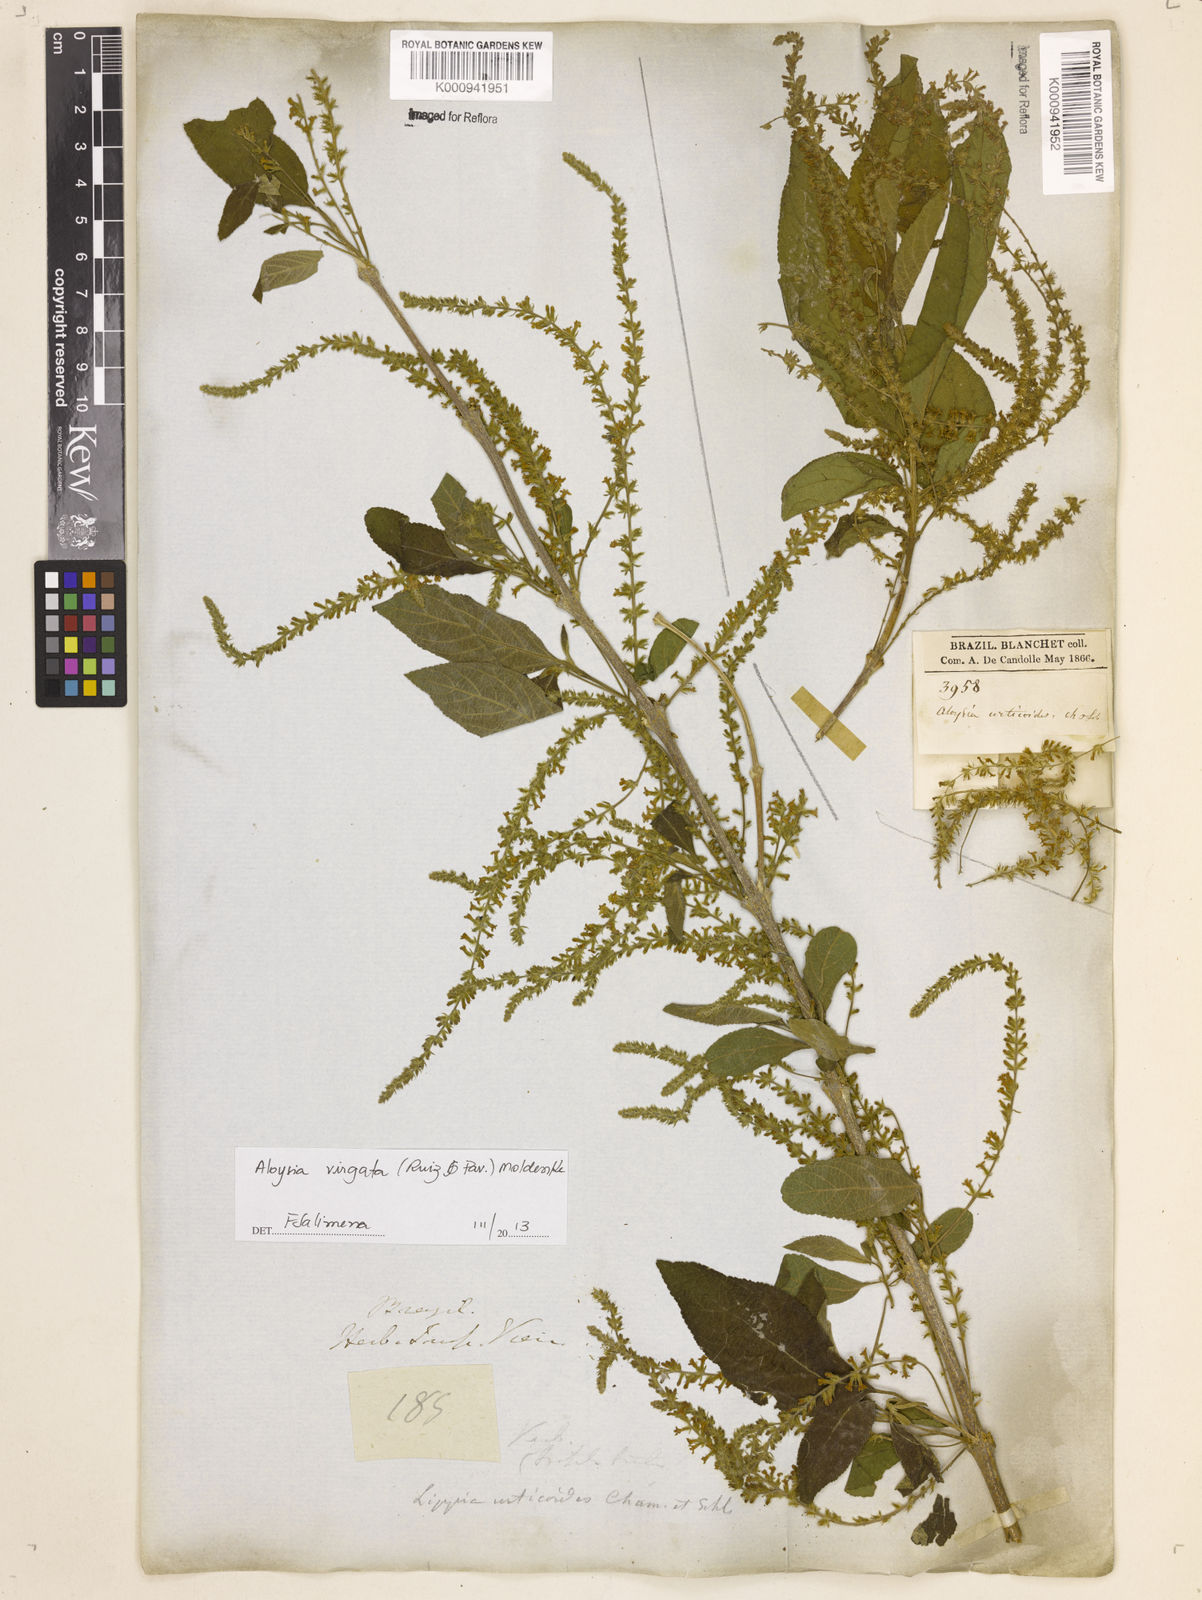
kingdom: Plantae
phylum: Tracheophyta
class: Magnoliopsida
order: Lamiales
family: Verbenaceae
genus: Aloysia
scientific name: Aloysia
